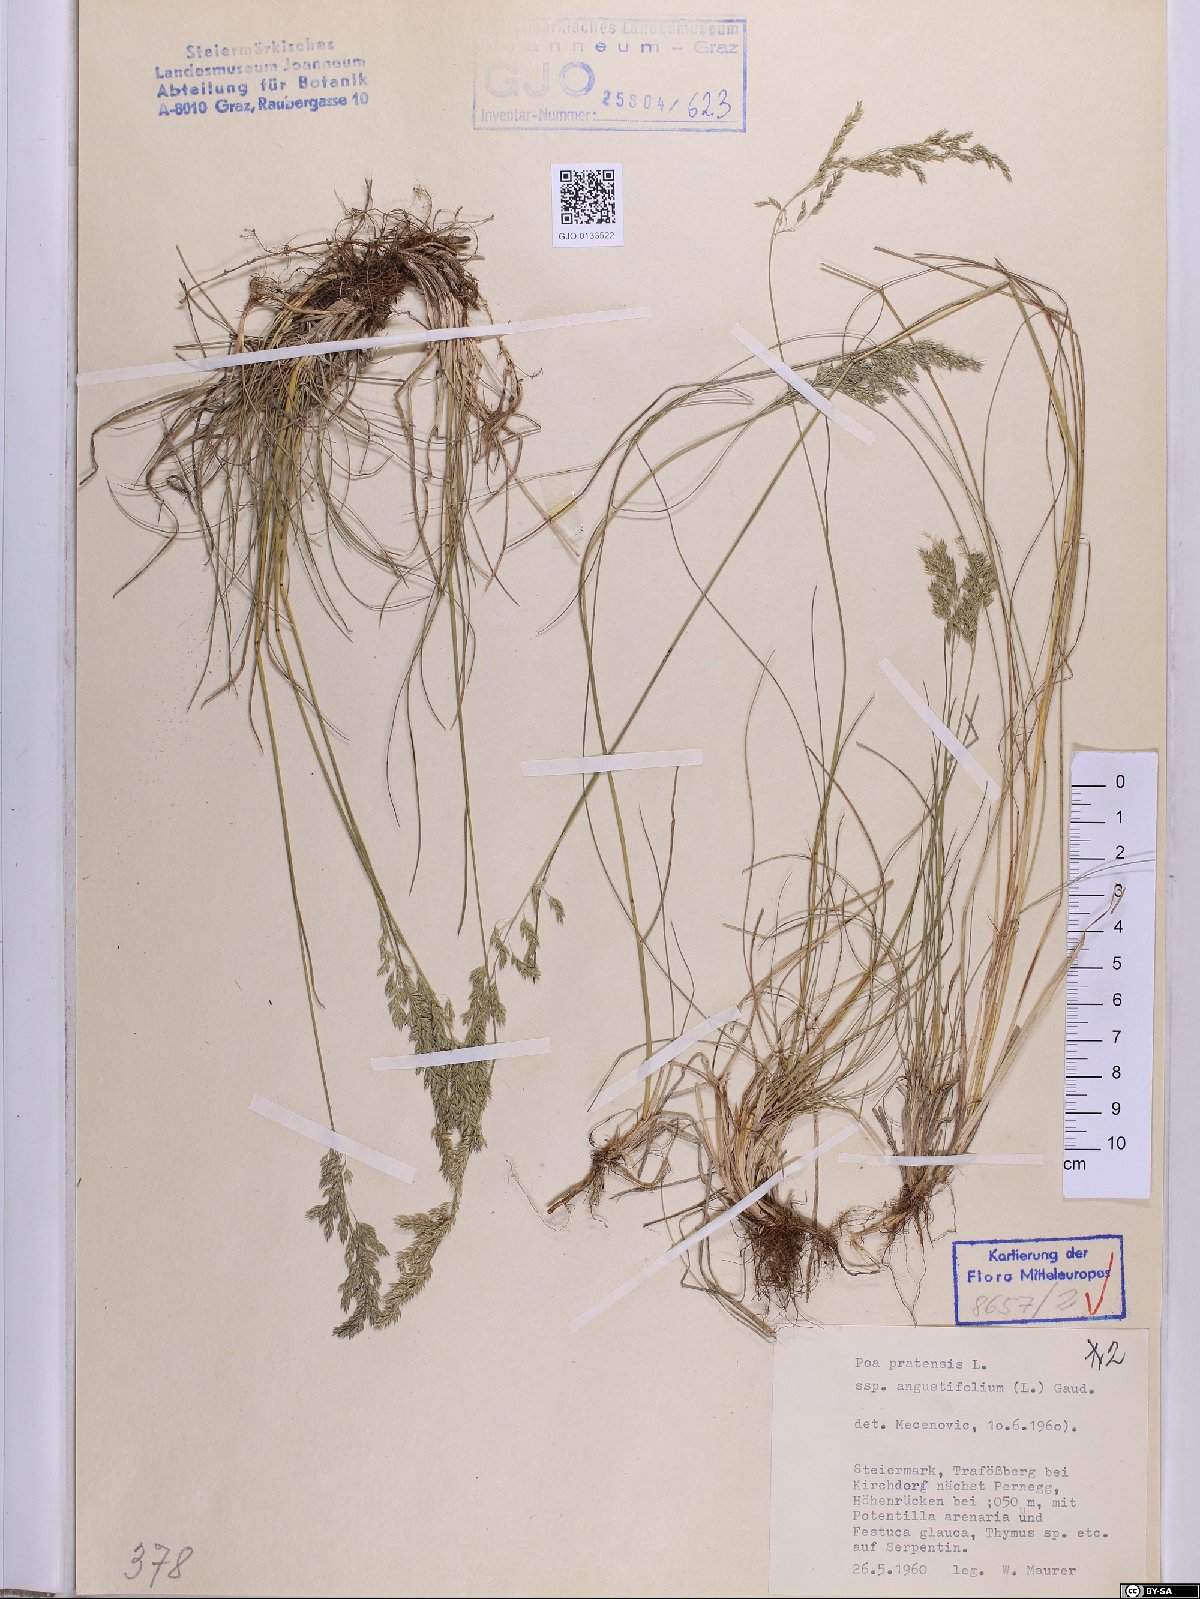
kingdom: Plantae
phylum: Tracheophyta
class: Liliopsida
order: Poales
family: Poaceae
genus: Poa
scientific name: Poa angustifolia
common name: Narrow-leaved meadow-grass
